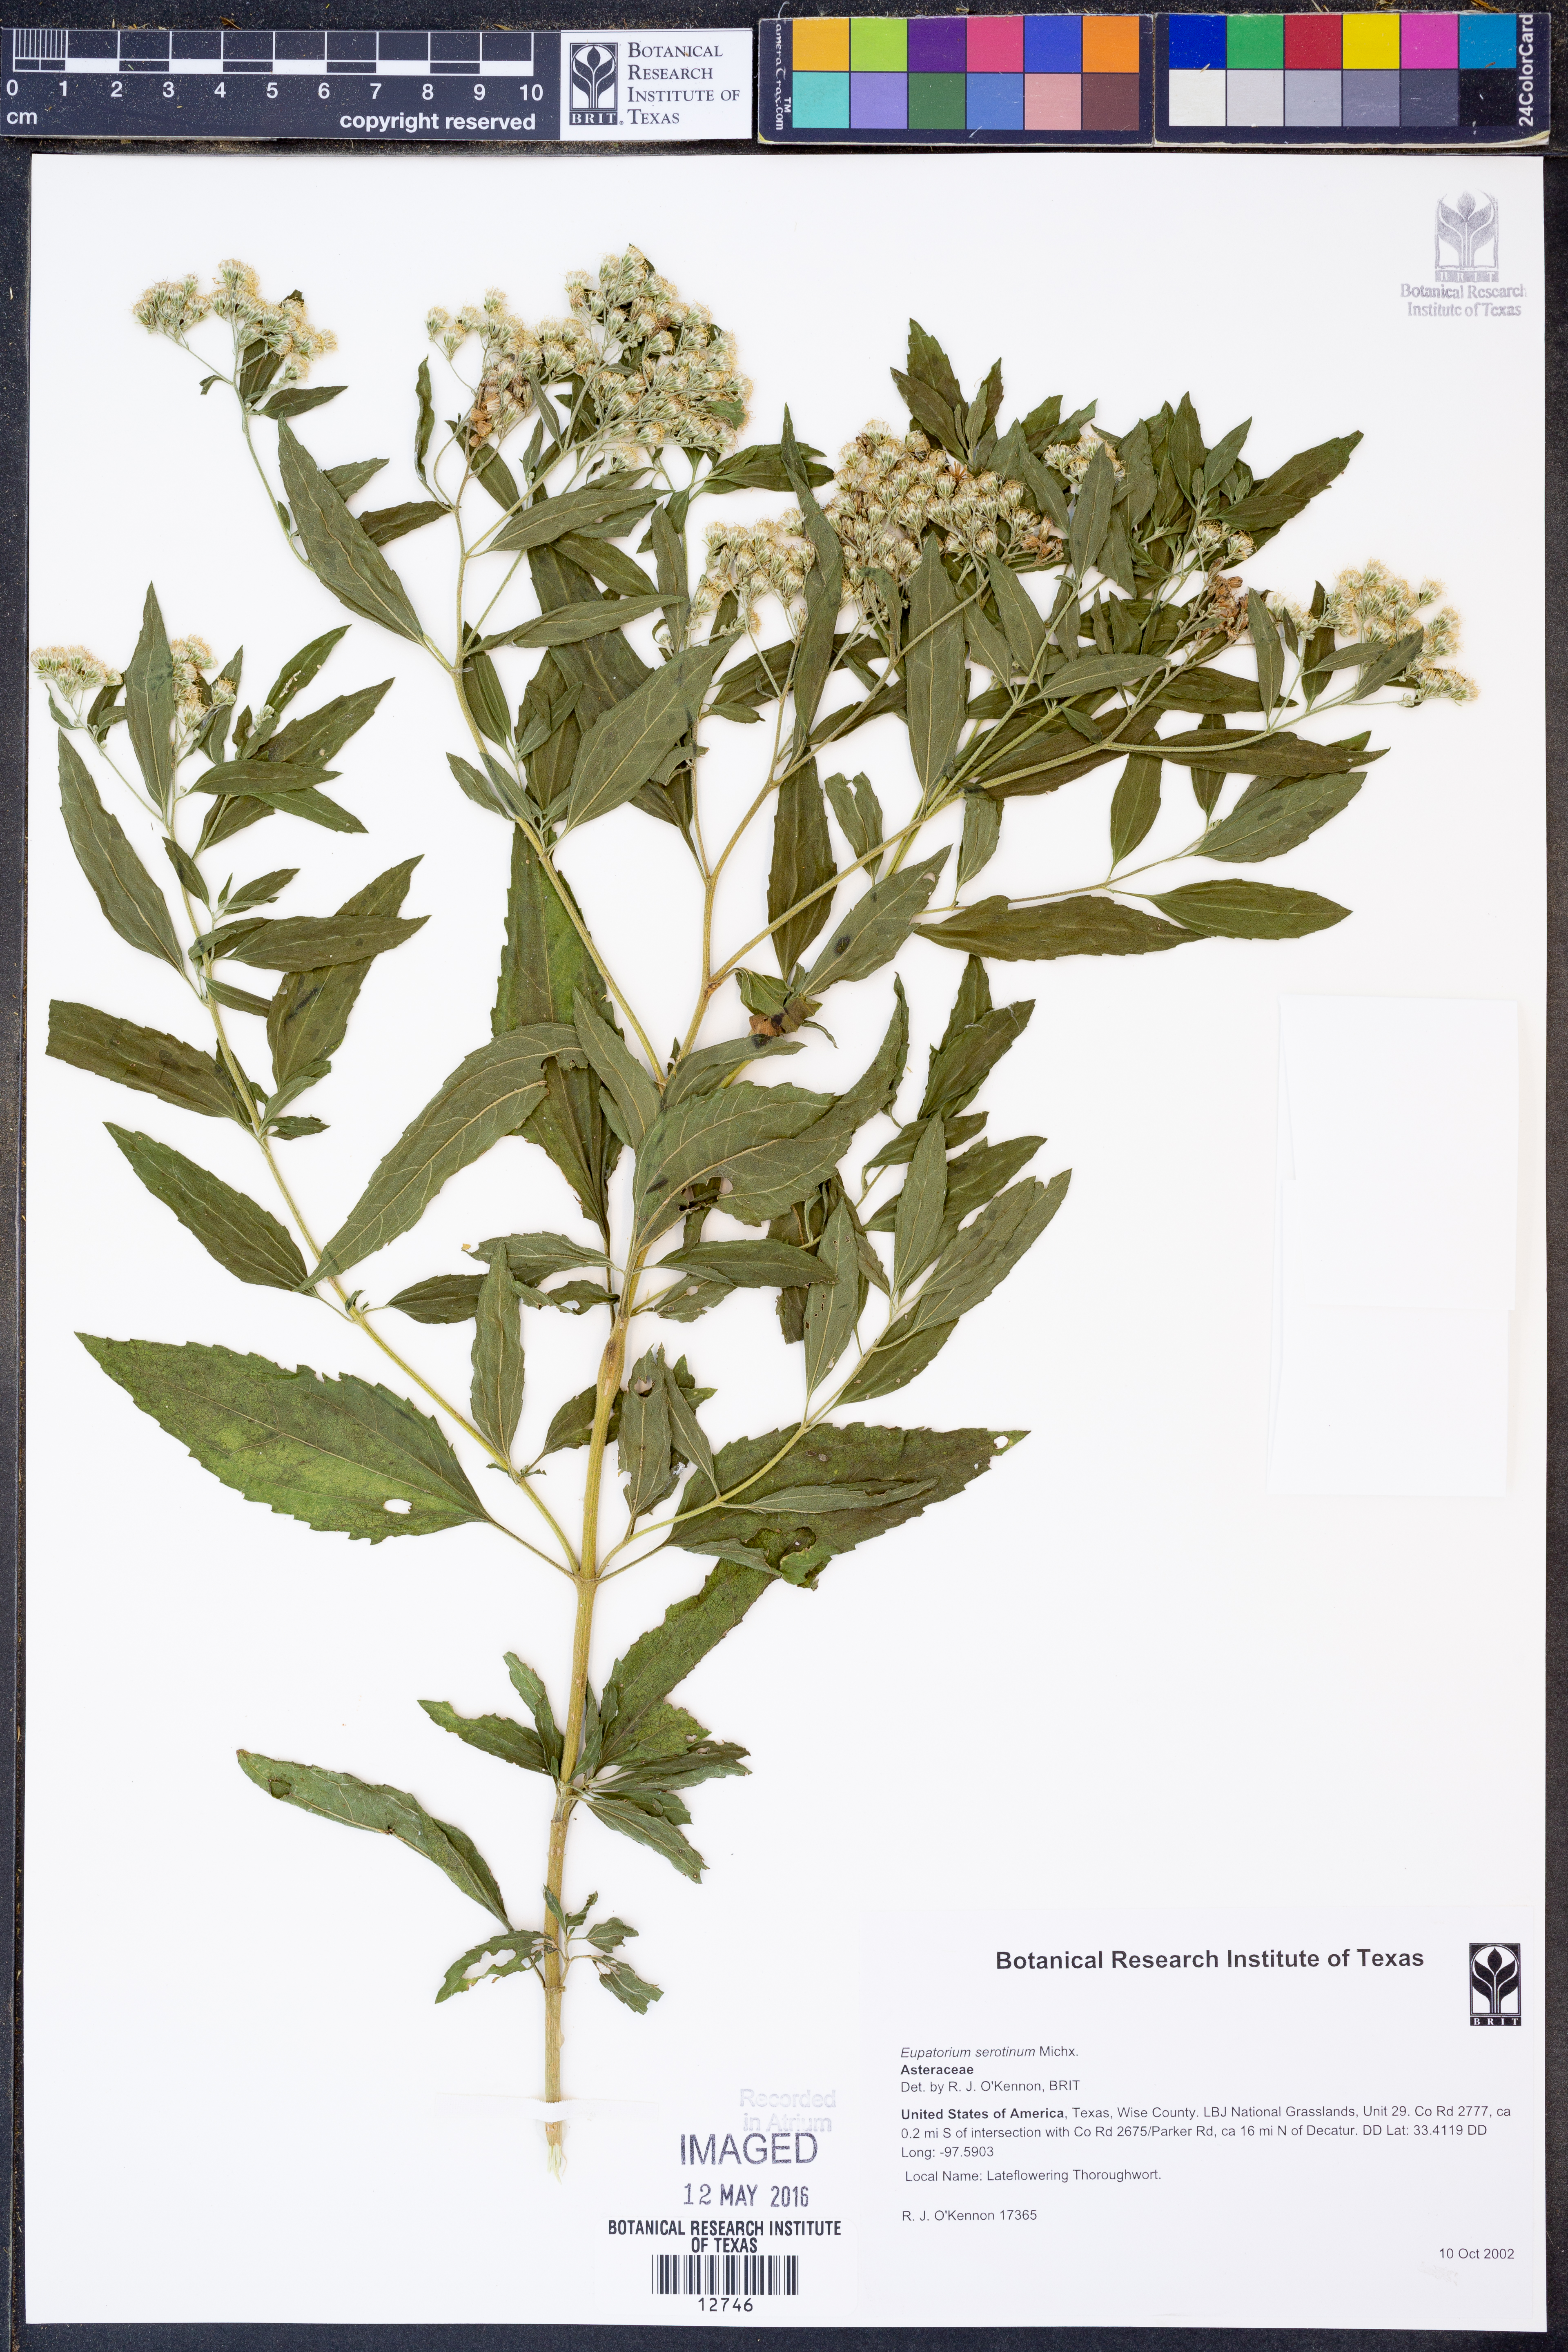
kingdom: Plantae
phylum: Tracheophyta
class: Magnoliopsida
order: Asterales
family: Asteraceae
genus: Eupatorium
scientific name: Eupatorium serotinum
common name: Late boneset
